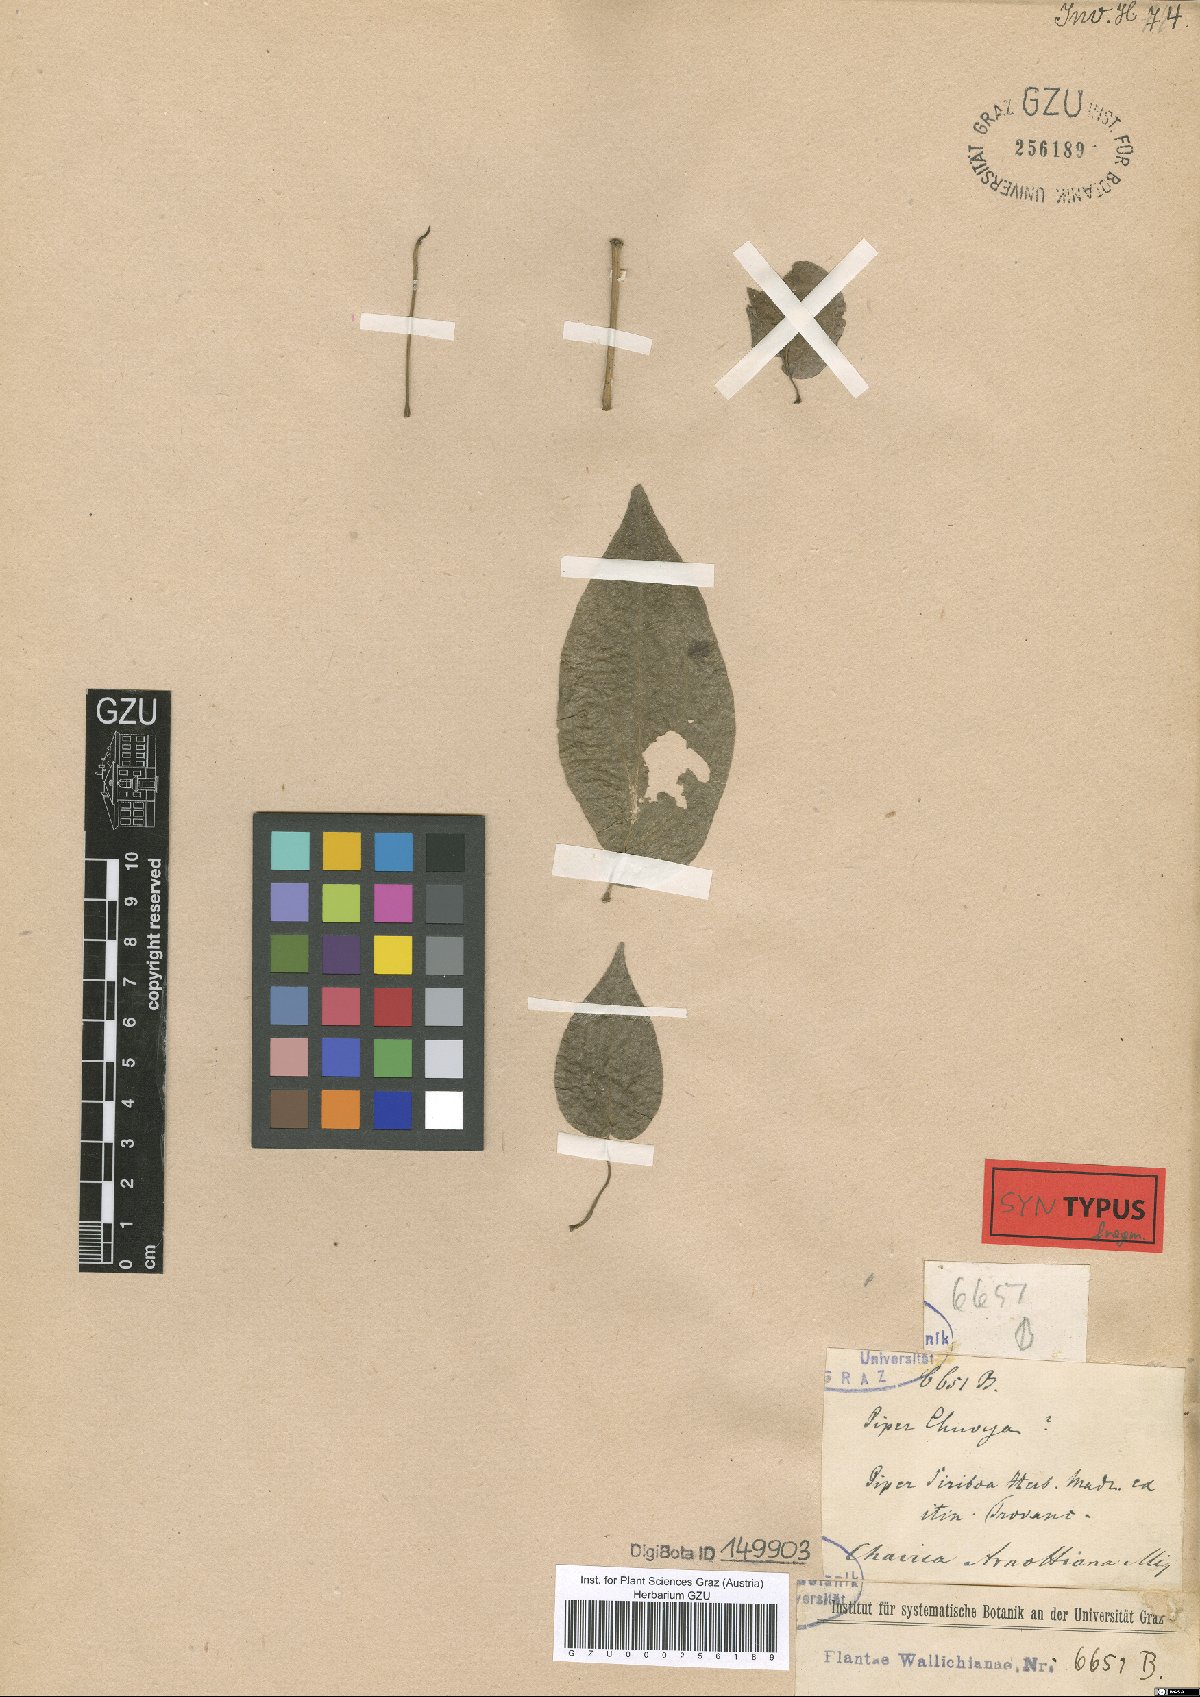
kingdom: Plantae
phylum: Tracheophyta
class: Magnoliopsida
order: Piperales
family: Piperaceae
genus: Piper
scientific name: Piper arnottianum
